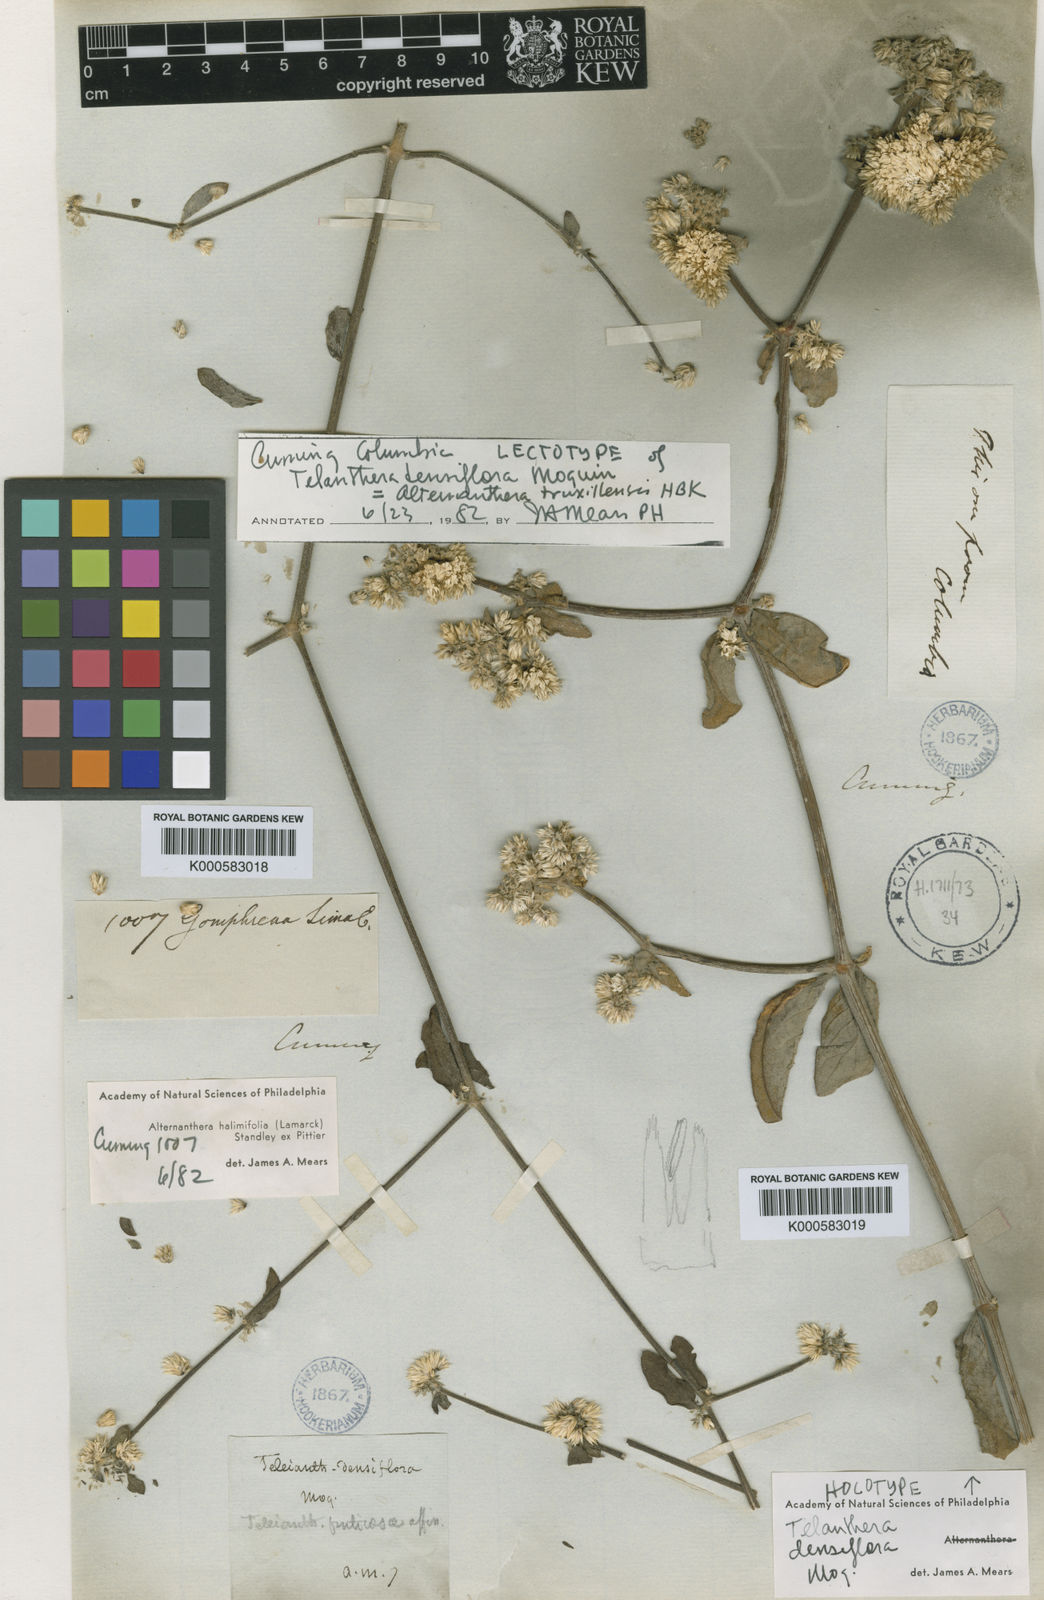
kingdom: Plantae
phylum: Tracheophyta
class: Magnoliopsida
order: Caryophyllales
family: Amaranthaceae
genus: Alternanthera
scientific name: Alternanthera
